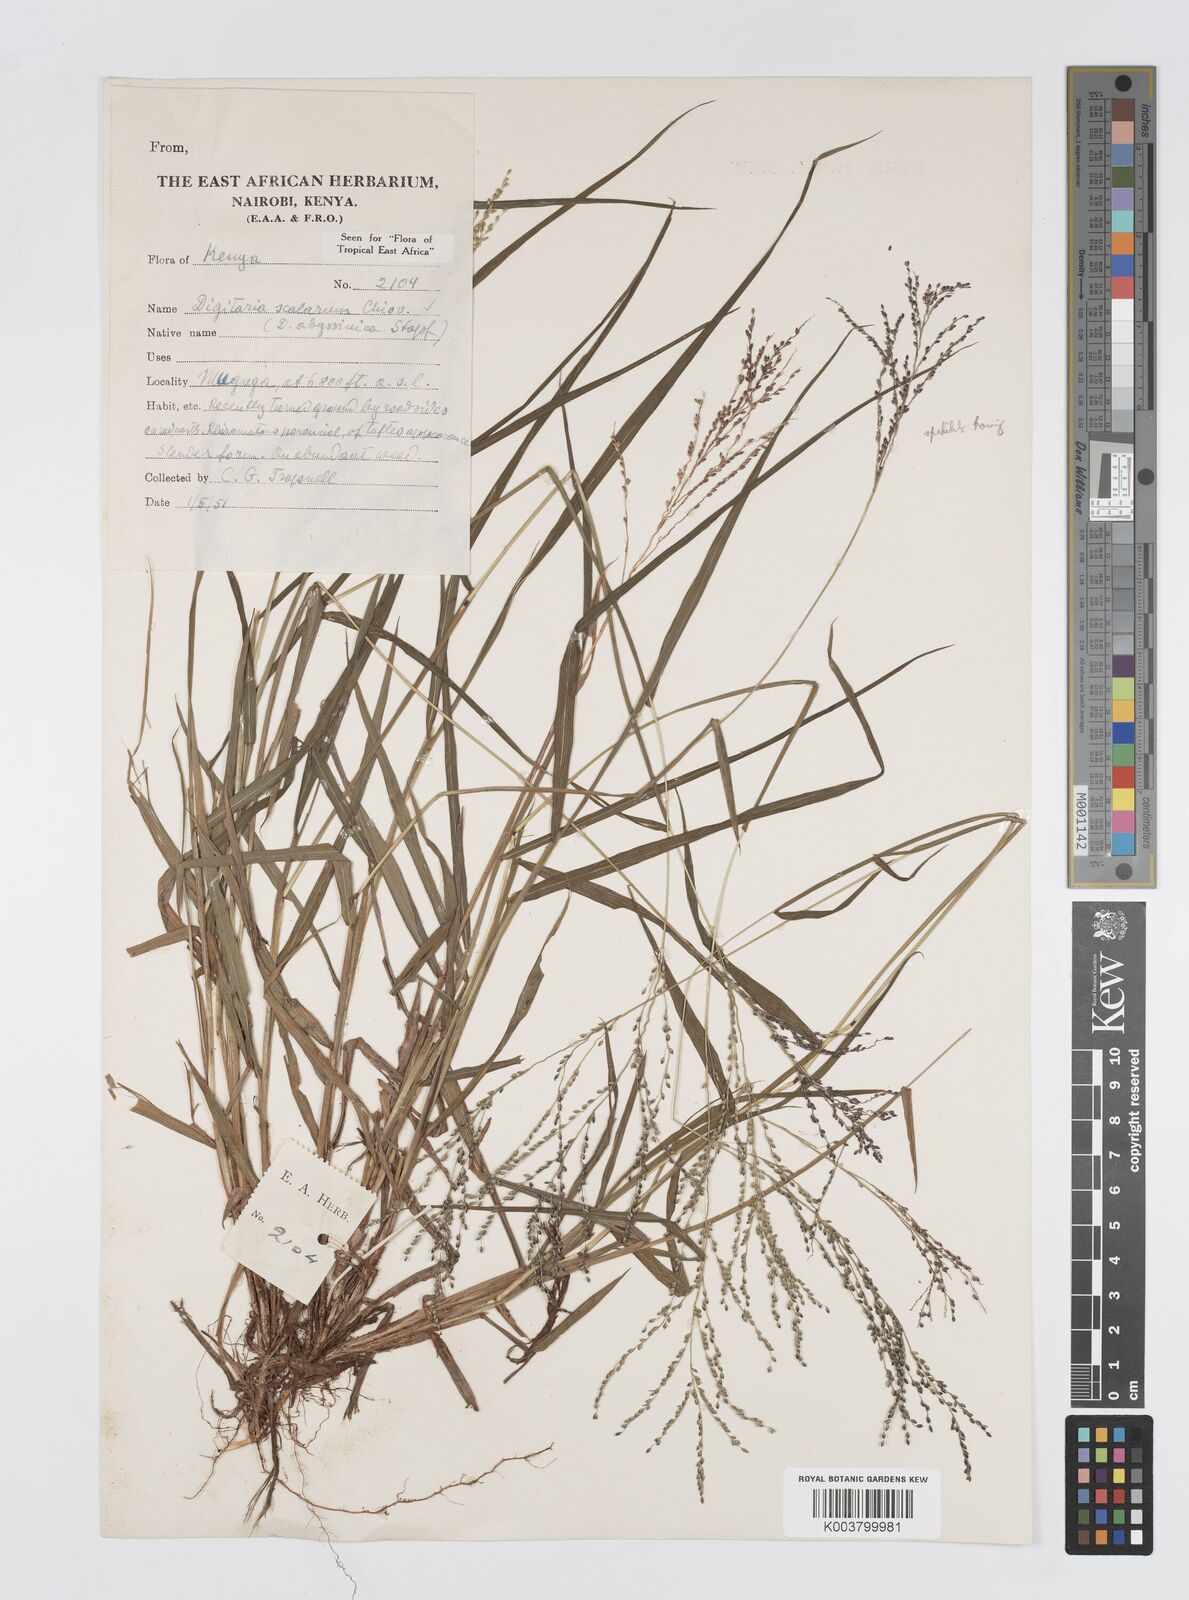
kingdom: Plantae
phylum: Tracheophyta
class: Liliopsida
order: Poales
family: Poaceae
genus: Digitaria
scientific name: Digitaria abyssinica
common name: African couchgrass
